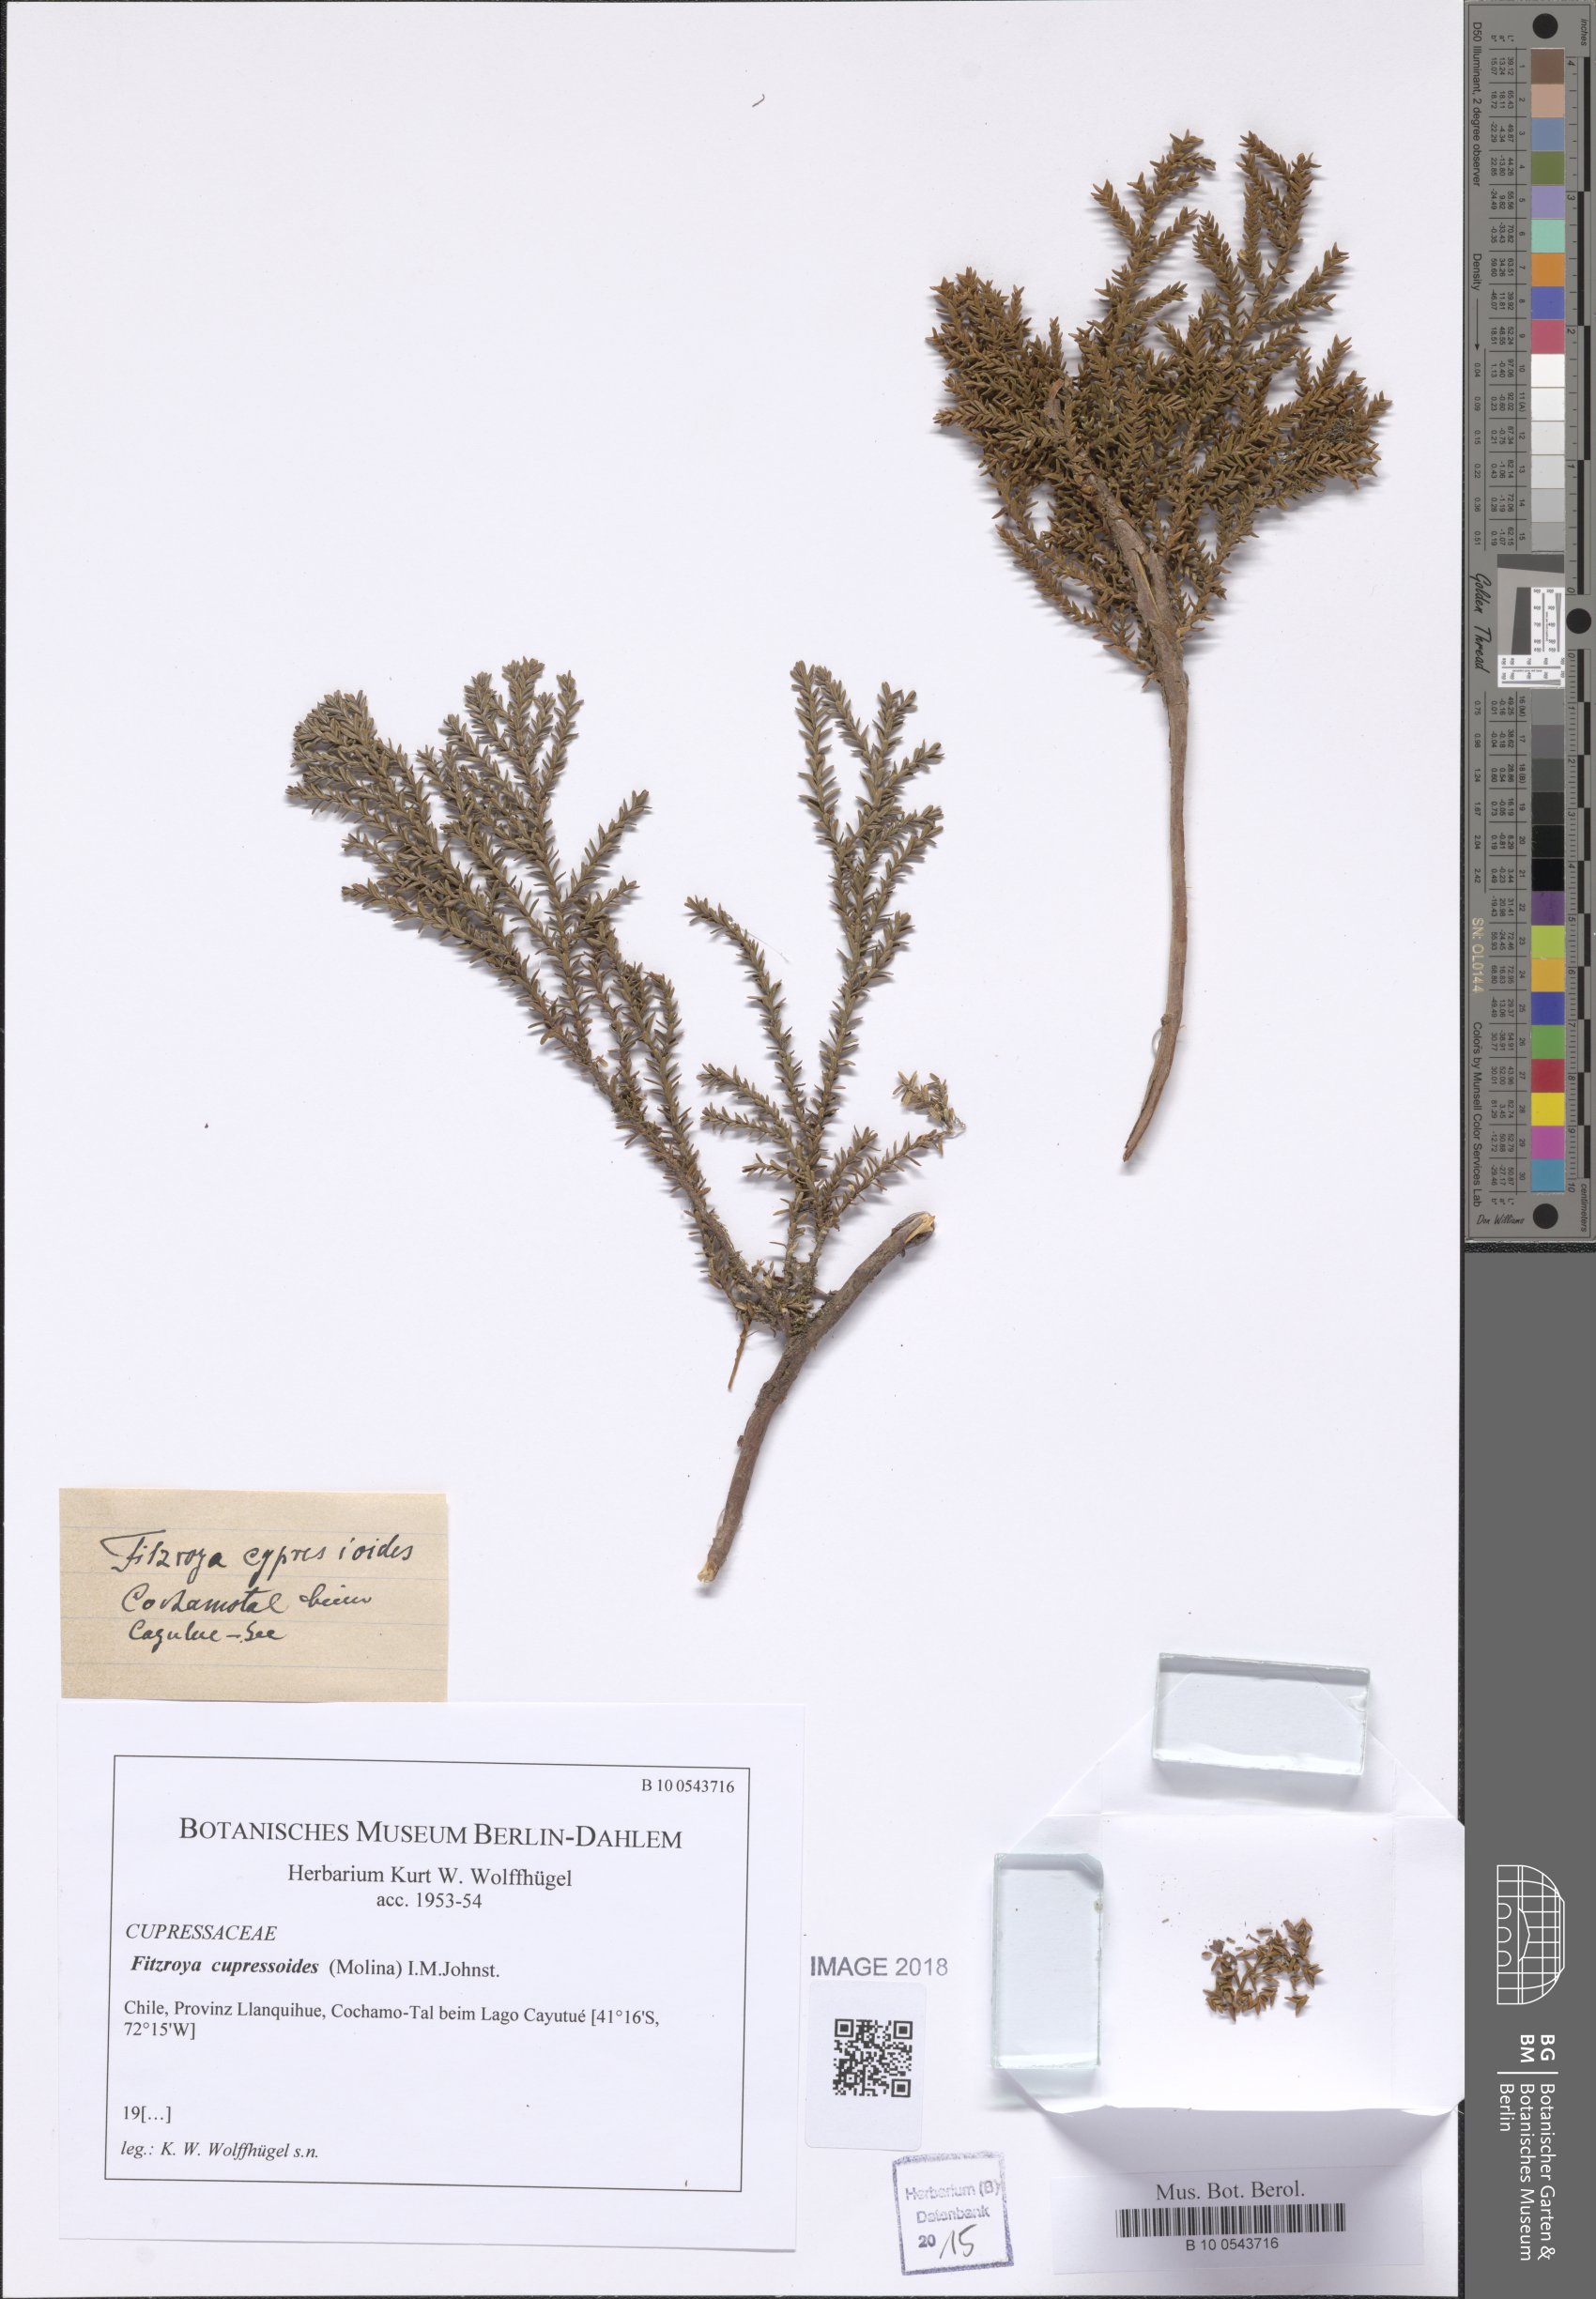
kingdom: Plantae
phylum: Tracheophyta
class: Pinopsida
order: Pinales
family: Cupressaceae
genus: Fitzroya
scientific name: Fitzroya cupressoides
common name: Patagonian cypress
